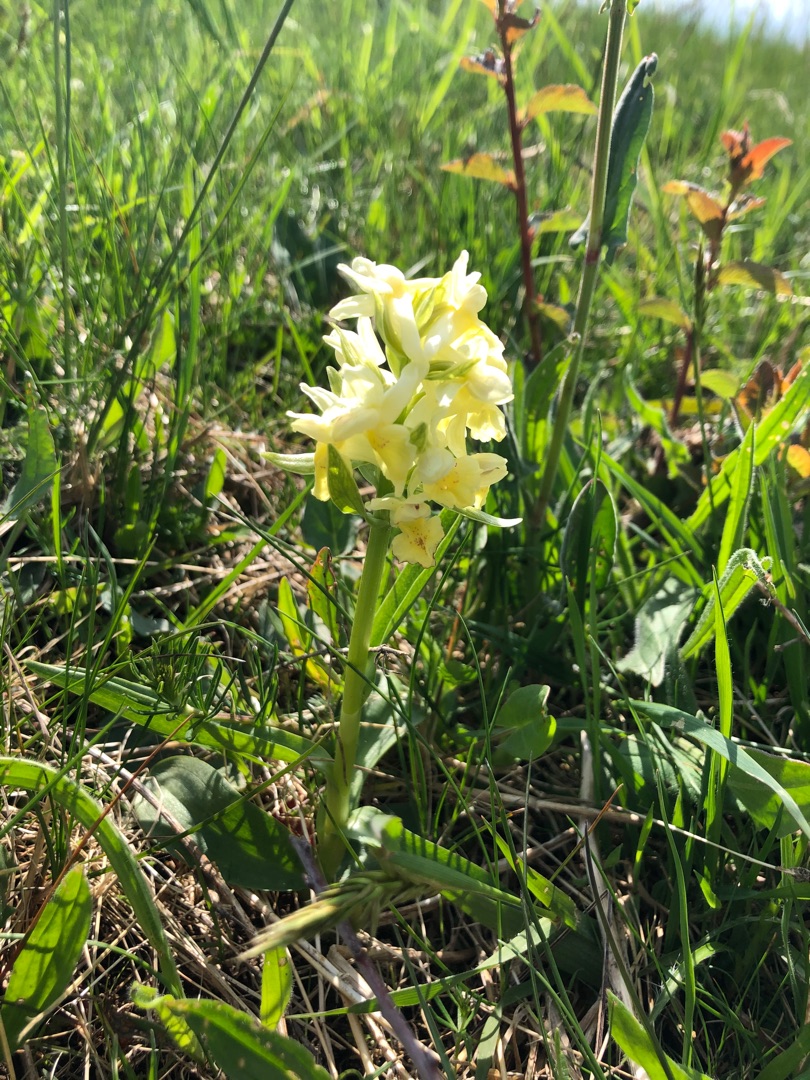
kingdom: Plantae
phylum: Tracheophyta
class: Liliopsida
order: Asparagales
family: Orchidaceae
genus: Dactylorhiza
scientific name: Dactylorhiza sambucina
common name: Hylde-gøgeurt
